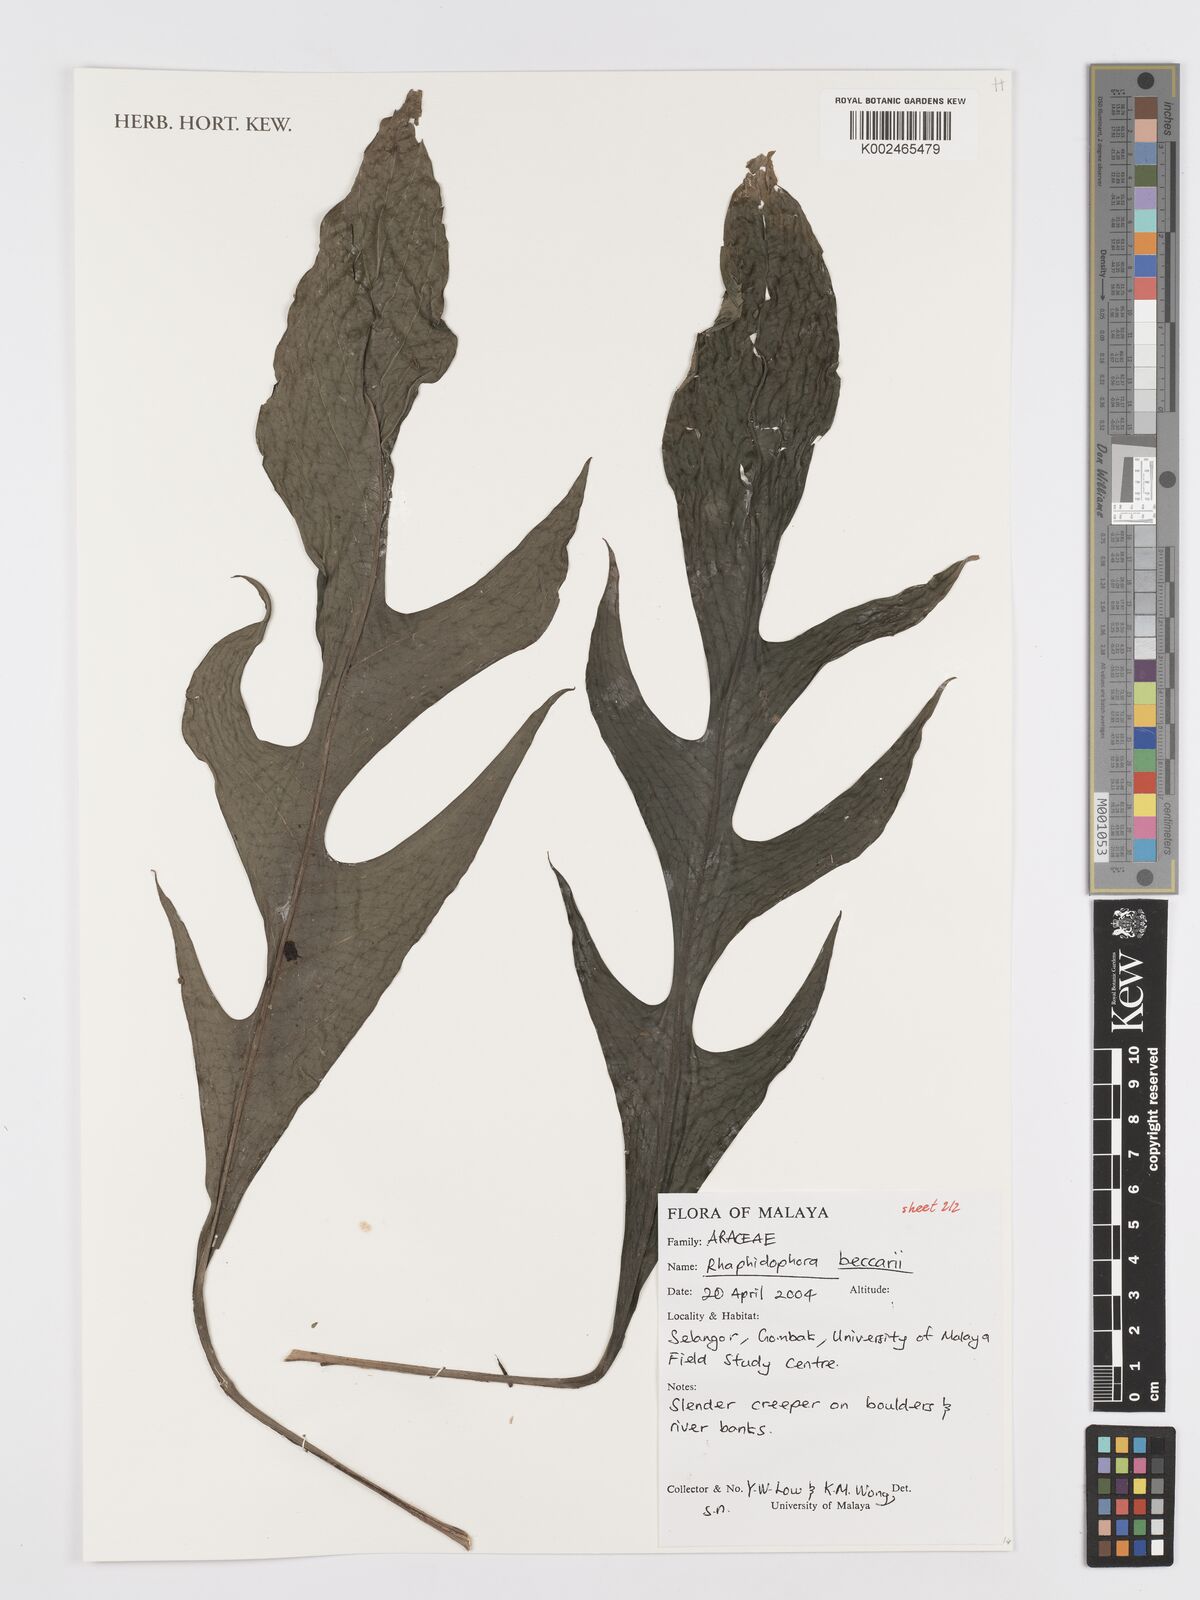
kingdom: Plantae
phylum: Tracheophyta
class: Liliopsida
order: Alismatales
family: Araceae
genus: Rhaphidophora
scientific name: Rhaphidophora beccarii
